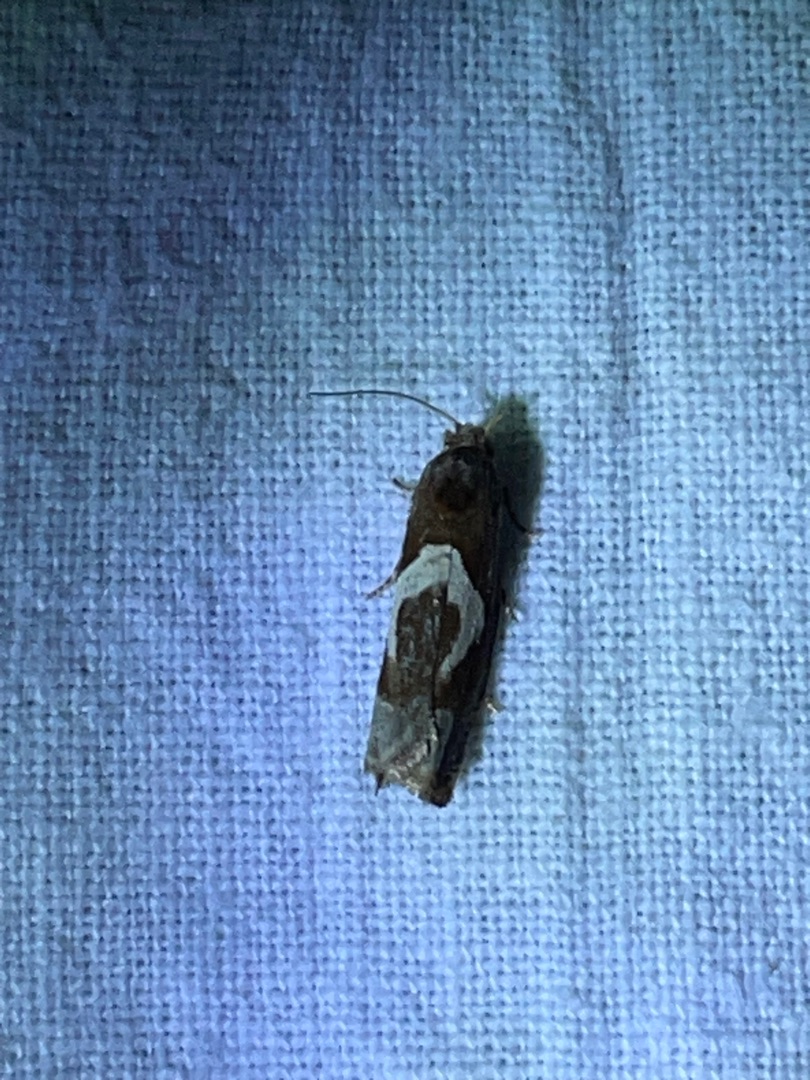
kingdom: Animalia
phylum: Arthropoda
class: Insecta
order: Lepidoptera
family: Tortricidae
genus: Epiblema
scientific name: Epiblema foenella
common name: Gråbynkegallevikler
